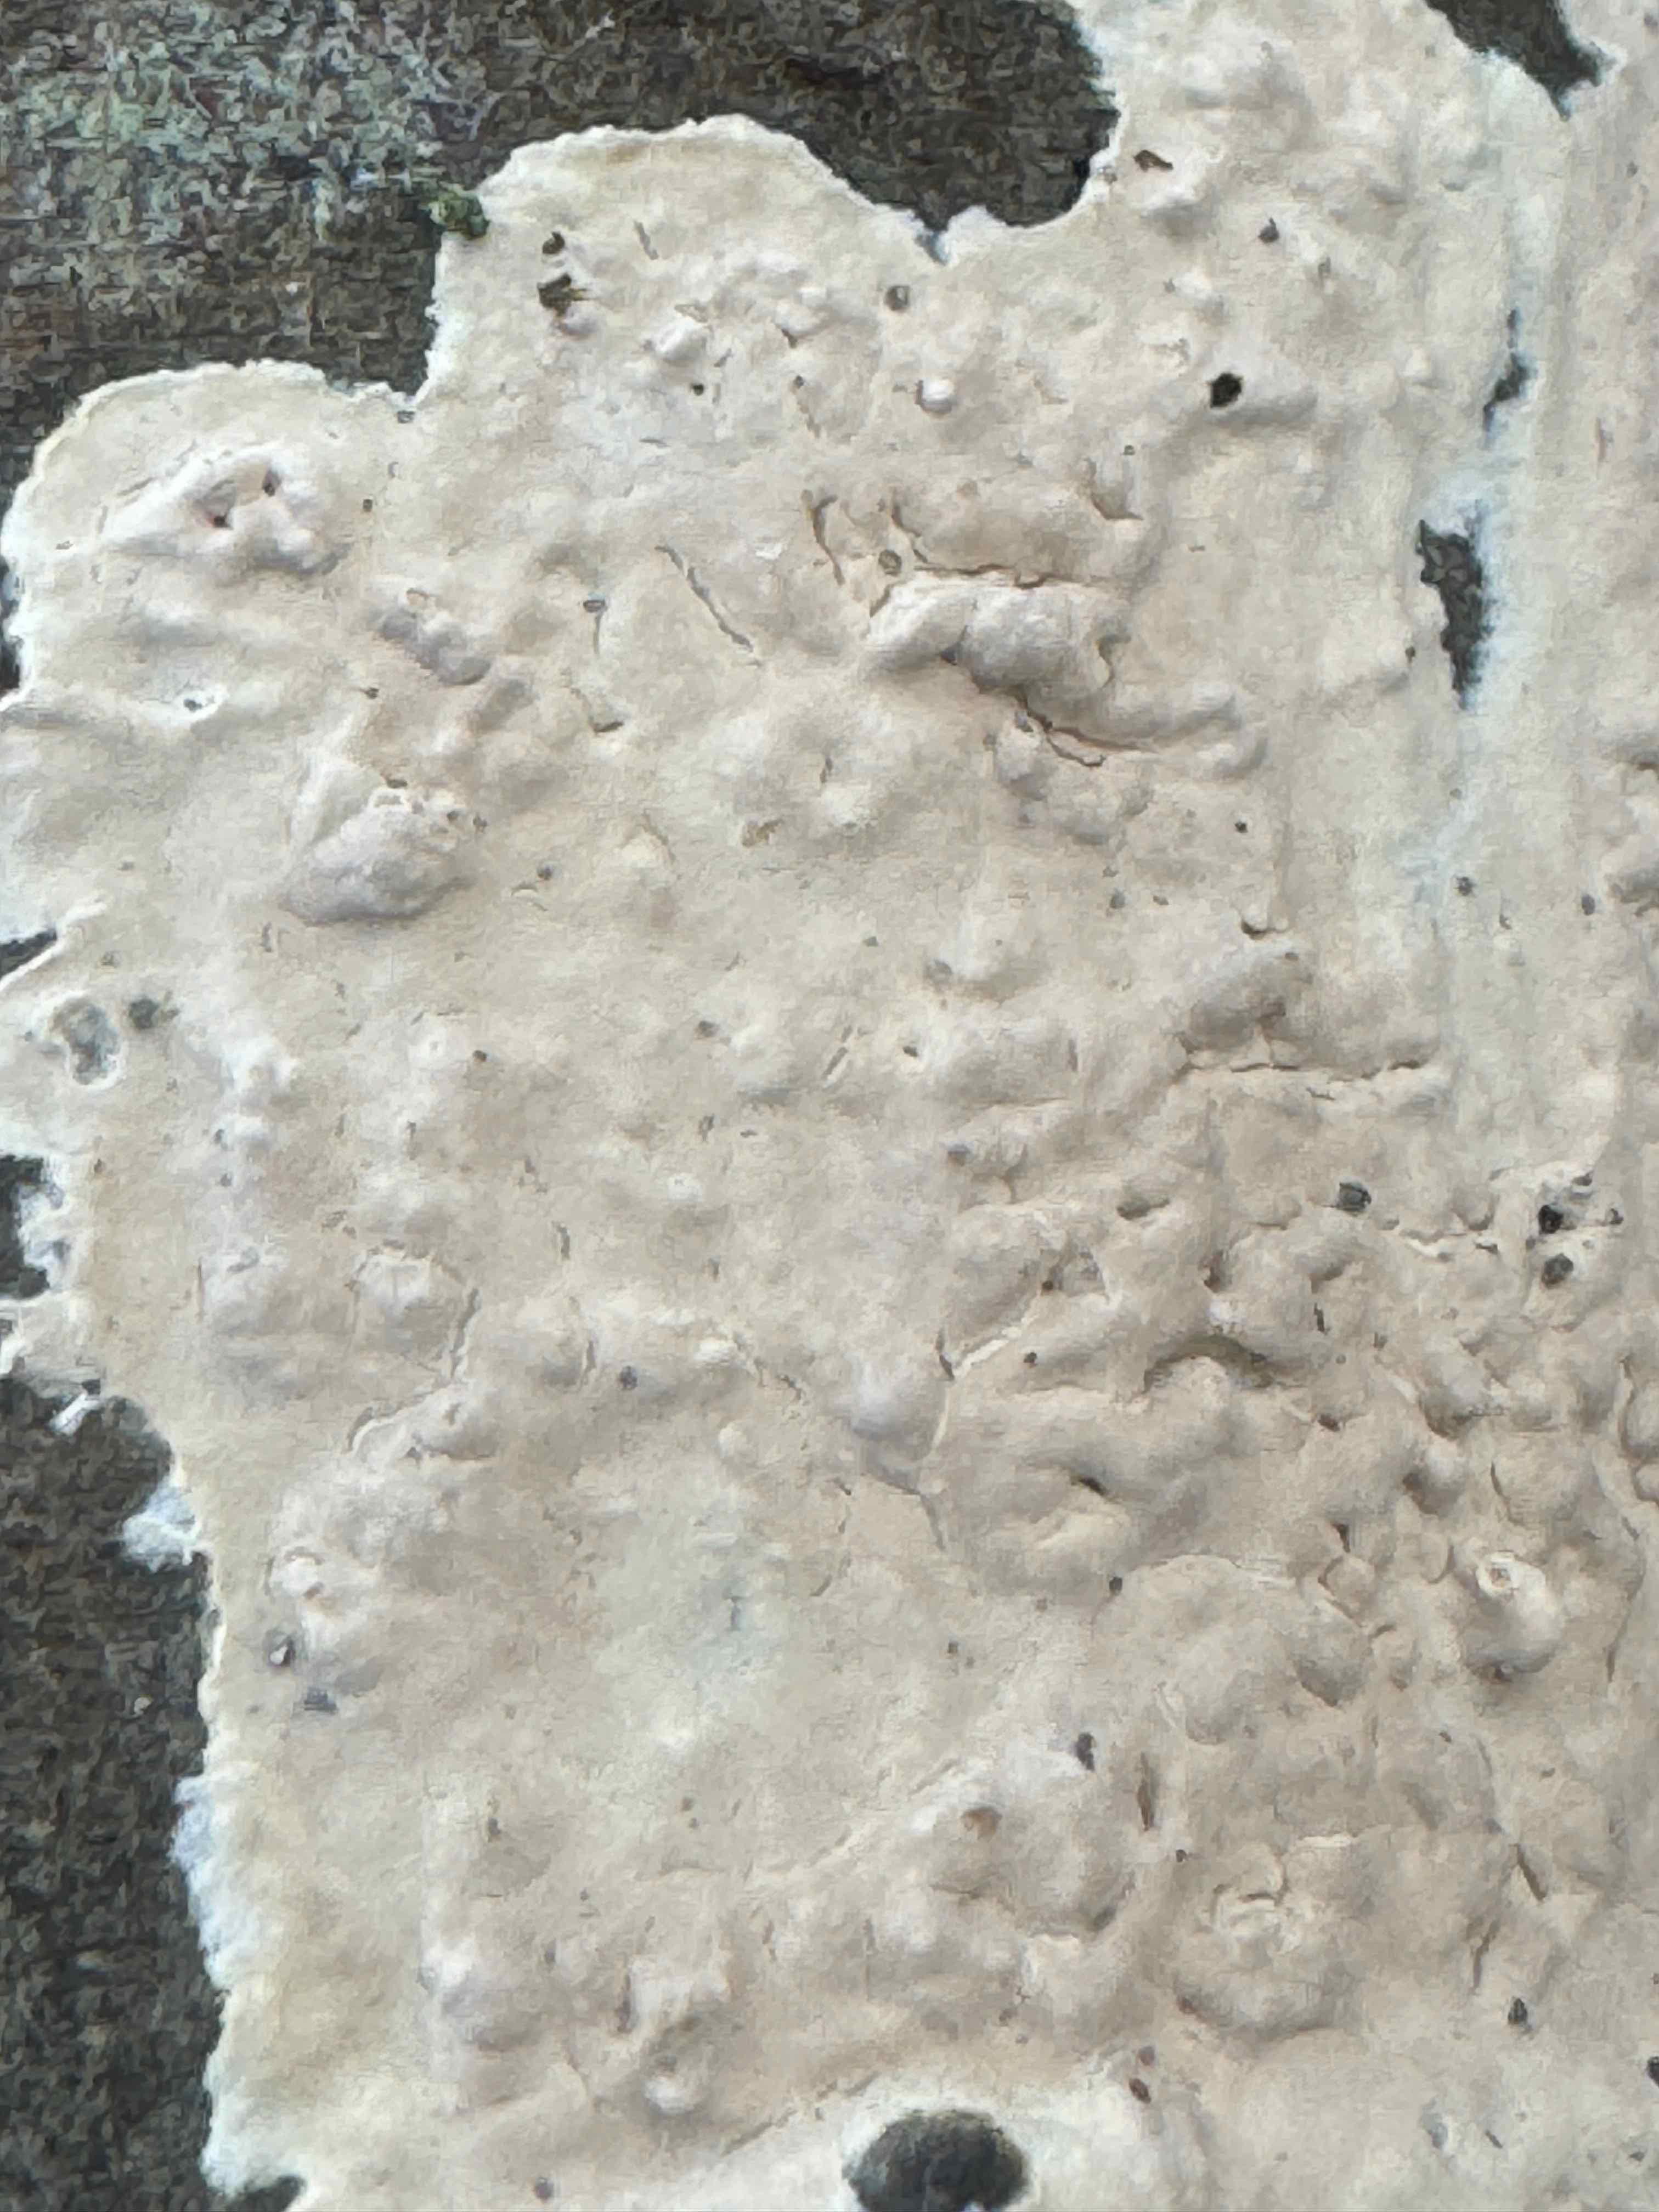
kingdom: Fungi
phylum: Basidiomycota
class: Agaricomycetes
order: Agaricales
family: Physalacriaceae
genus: Cylindrobasidium
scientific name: Cylindrobasidium evolvens
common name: sprækkehinde
